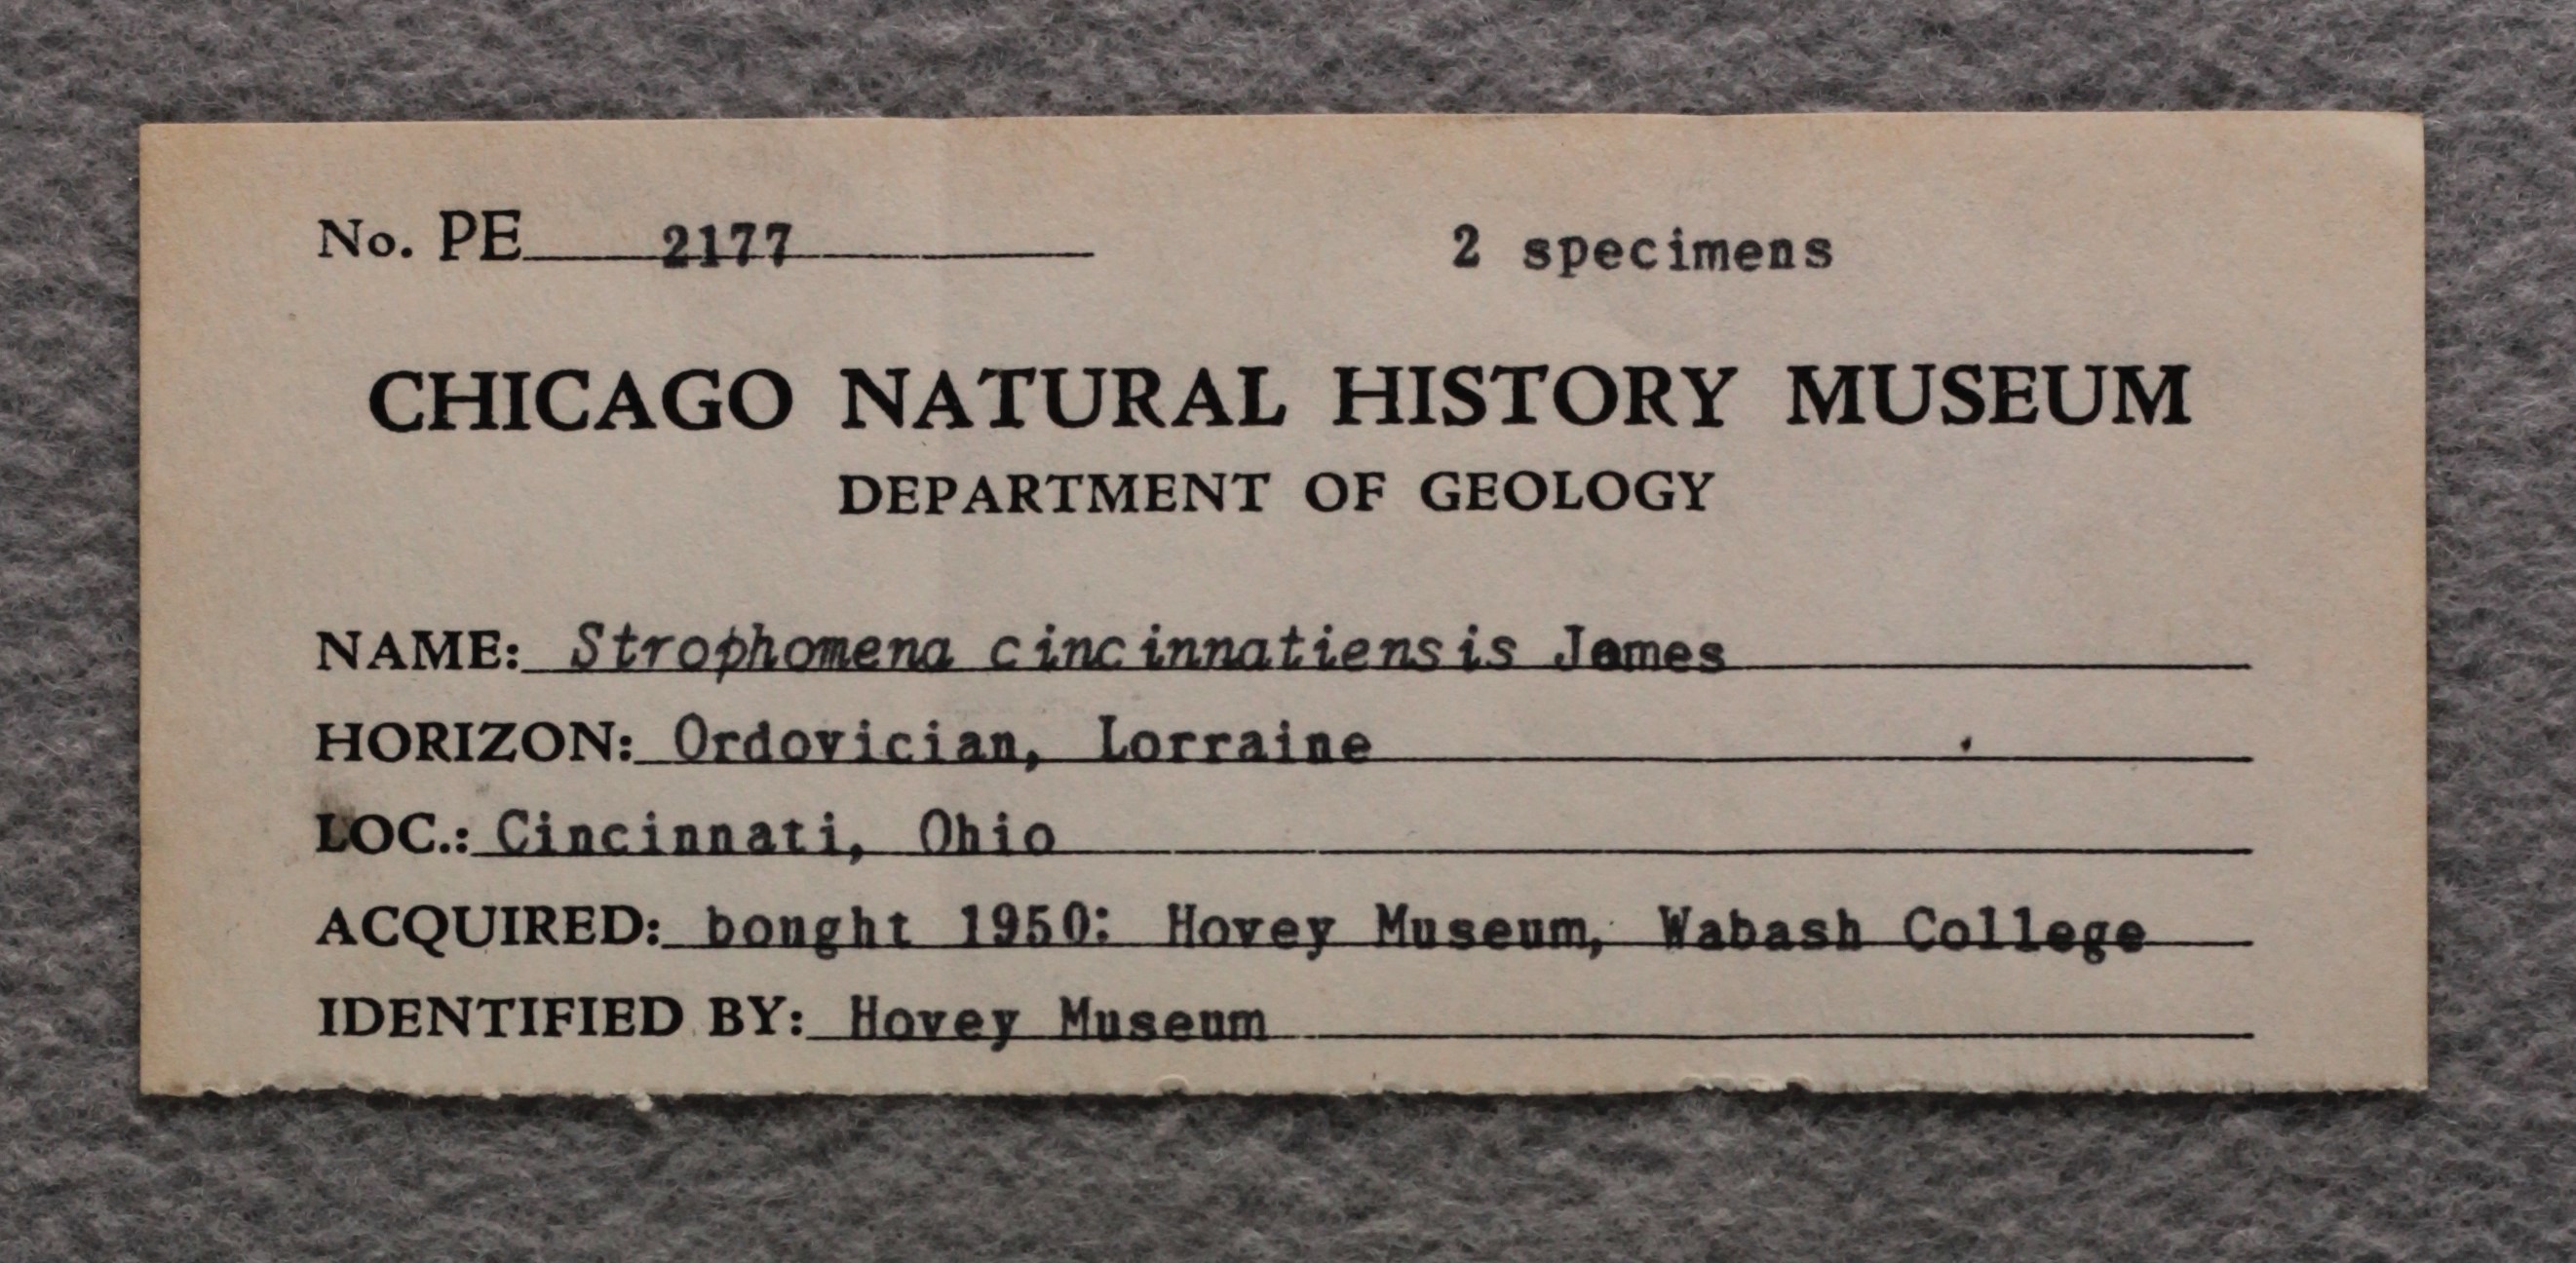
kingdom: Animalia
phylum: Brachiopoda
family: Strophomenidae
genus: Strophomena
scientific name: Strophomena
